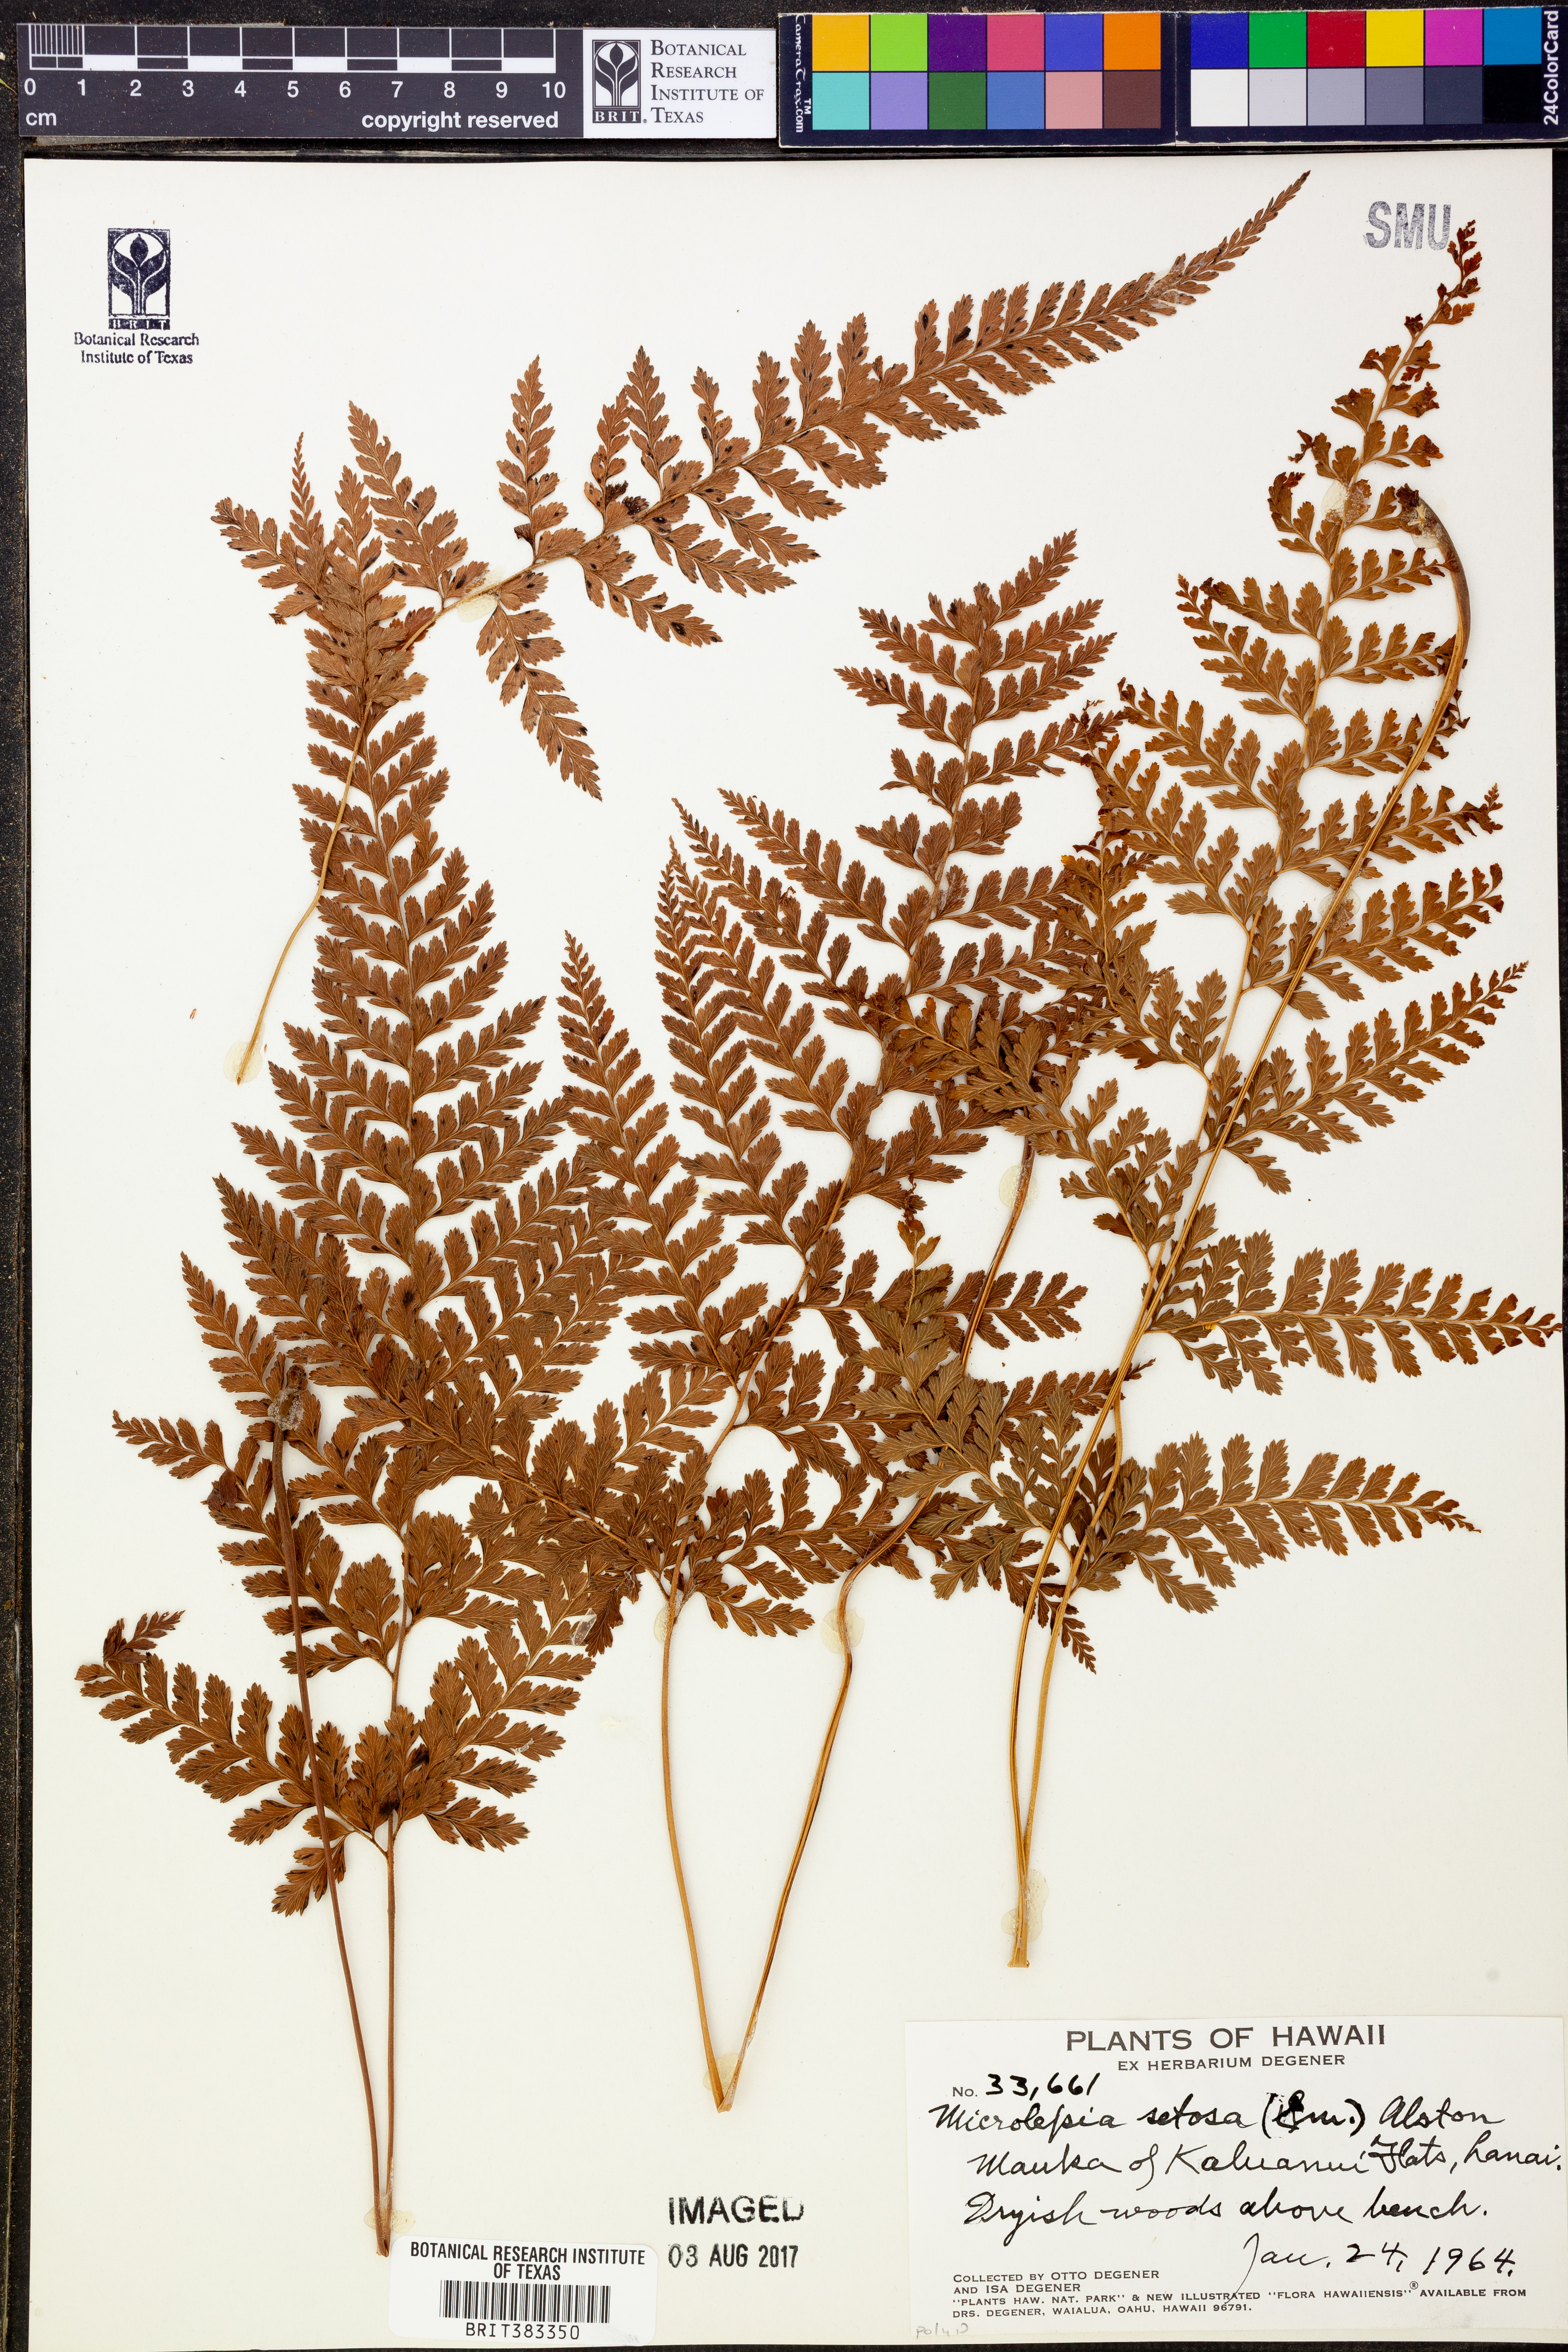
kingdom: Plantae
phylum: Tracheophyta
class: Polypodiopsida
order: Polypodiales
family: Dennstaedtiaceae
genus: Microlepia
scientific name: Microlepia setosa
